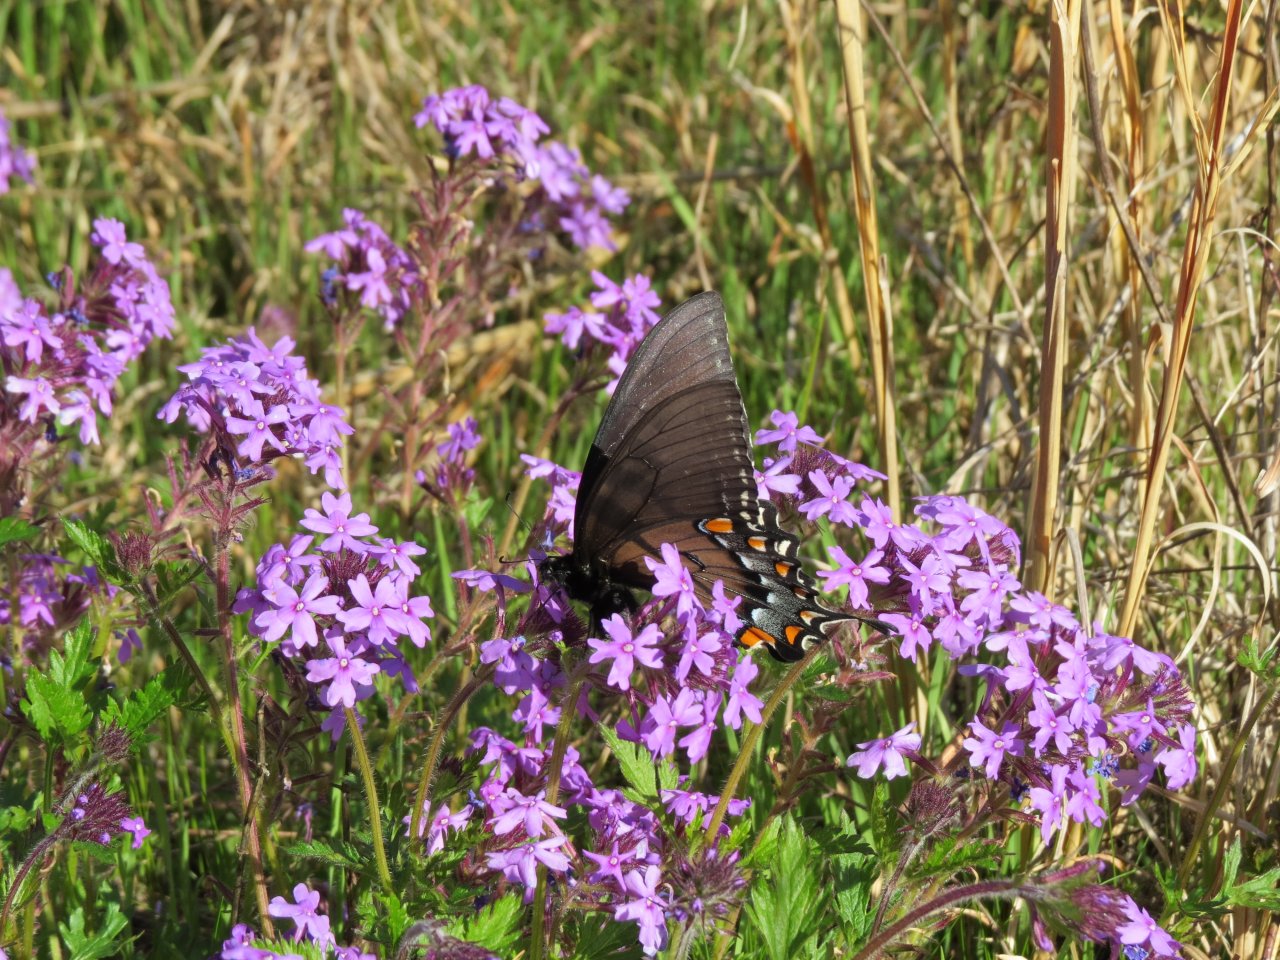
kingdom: Animalia
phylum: Arthropoda
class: Insecta
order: Lepidoptera
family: Papilionidae
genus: Pterourus
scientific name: Pterourus glaucus
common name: Eastern Tiger Swallowtail
